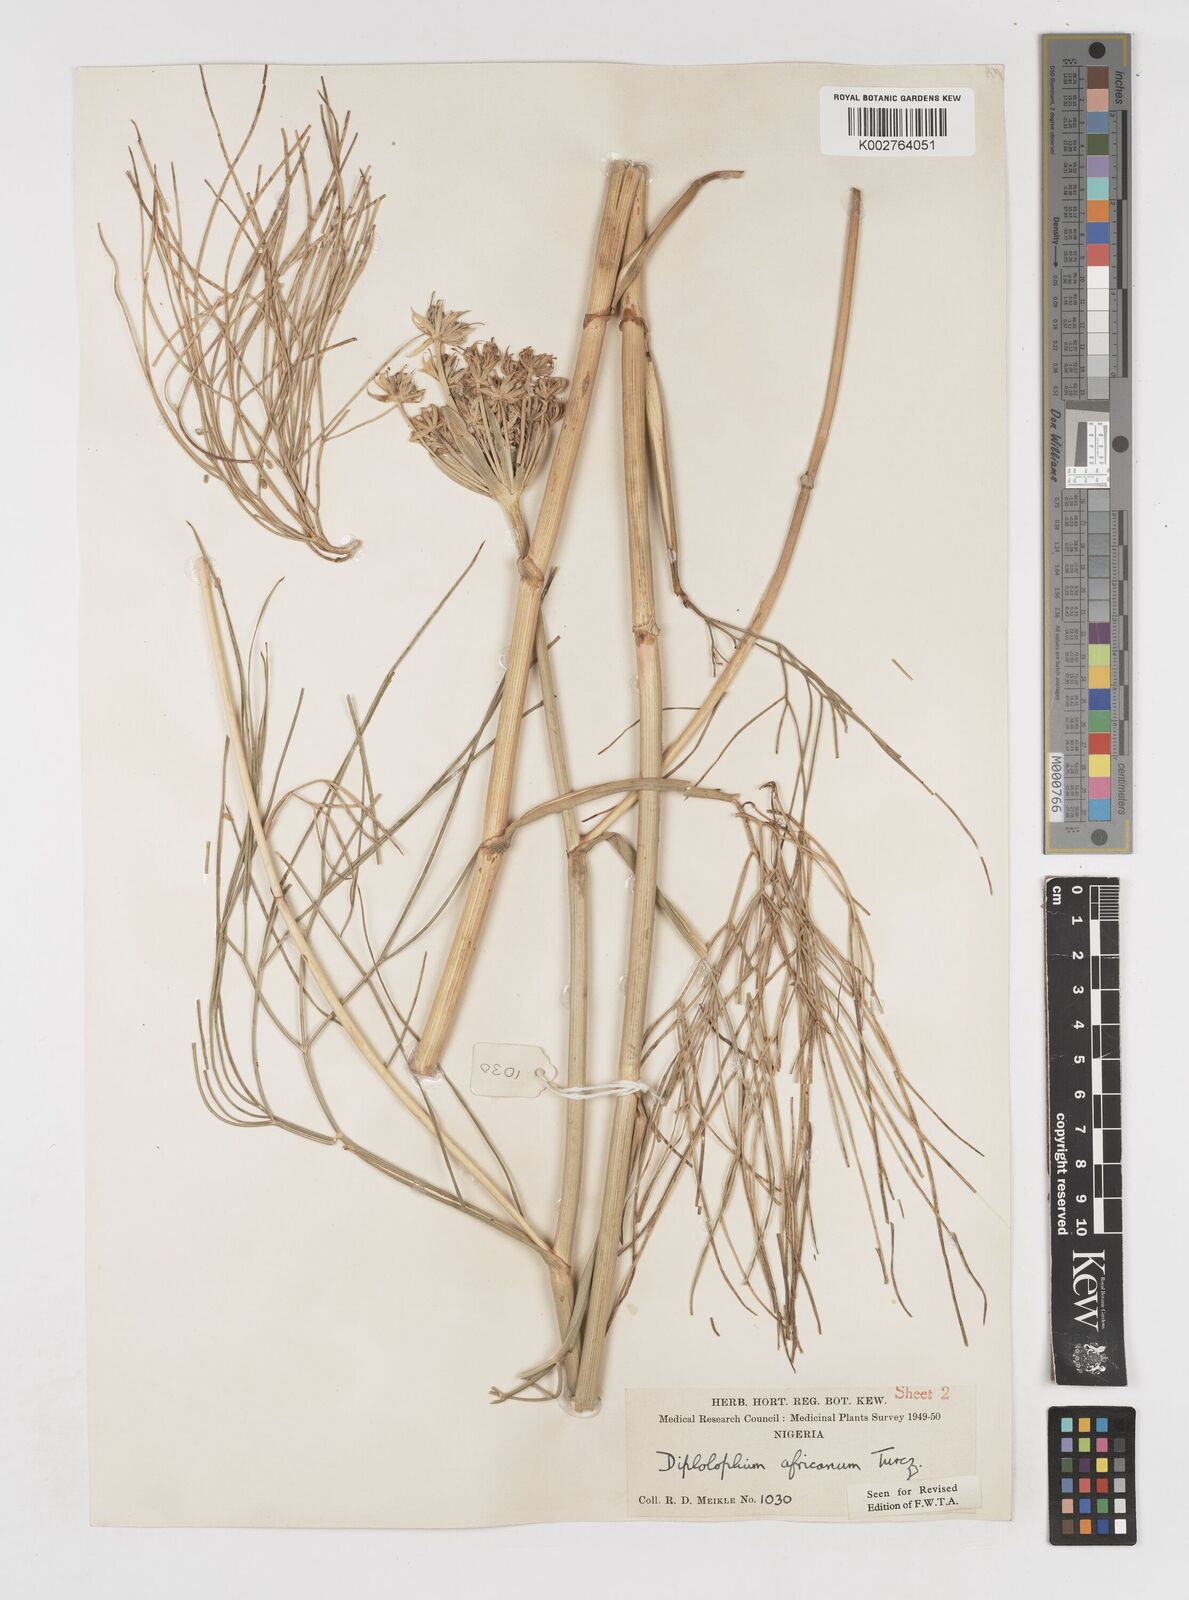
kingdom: Plantae
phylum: Tracheophyta
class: Magnoliopsida
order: Apiales
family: Apiaceae
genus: Diplolophium
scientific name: Diplolophium africanum
